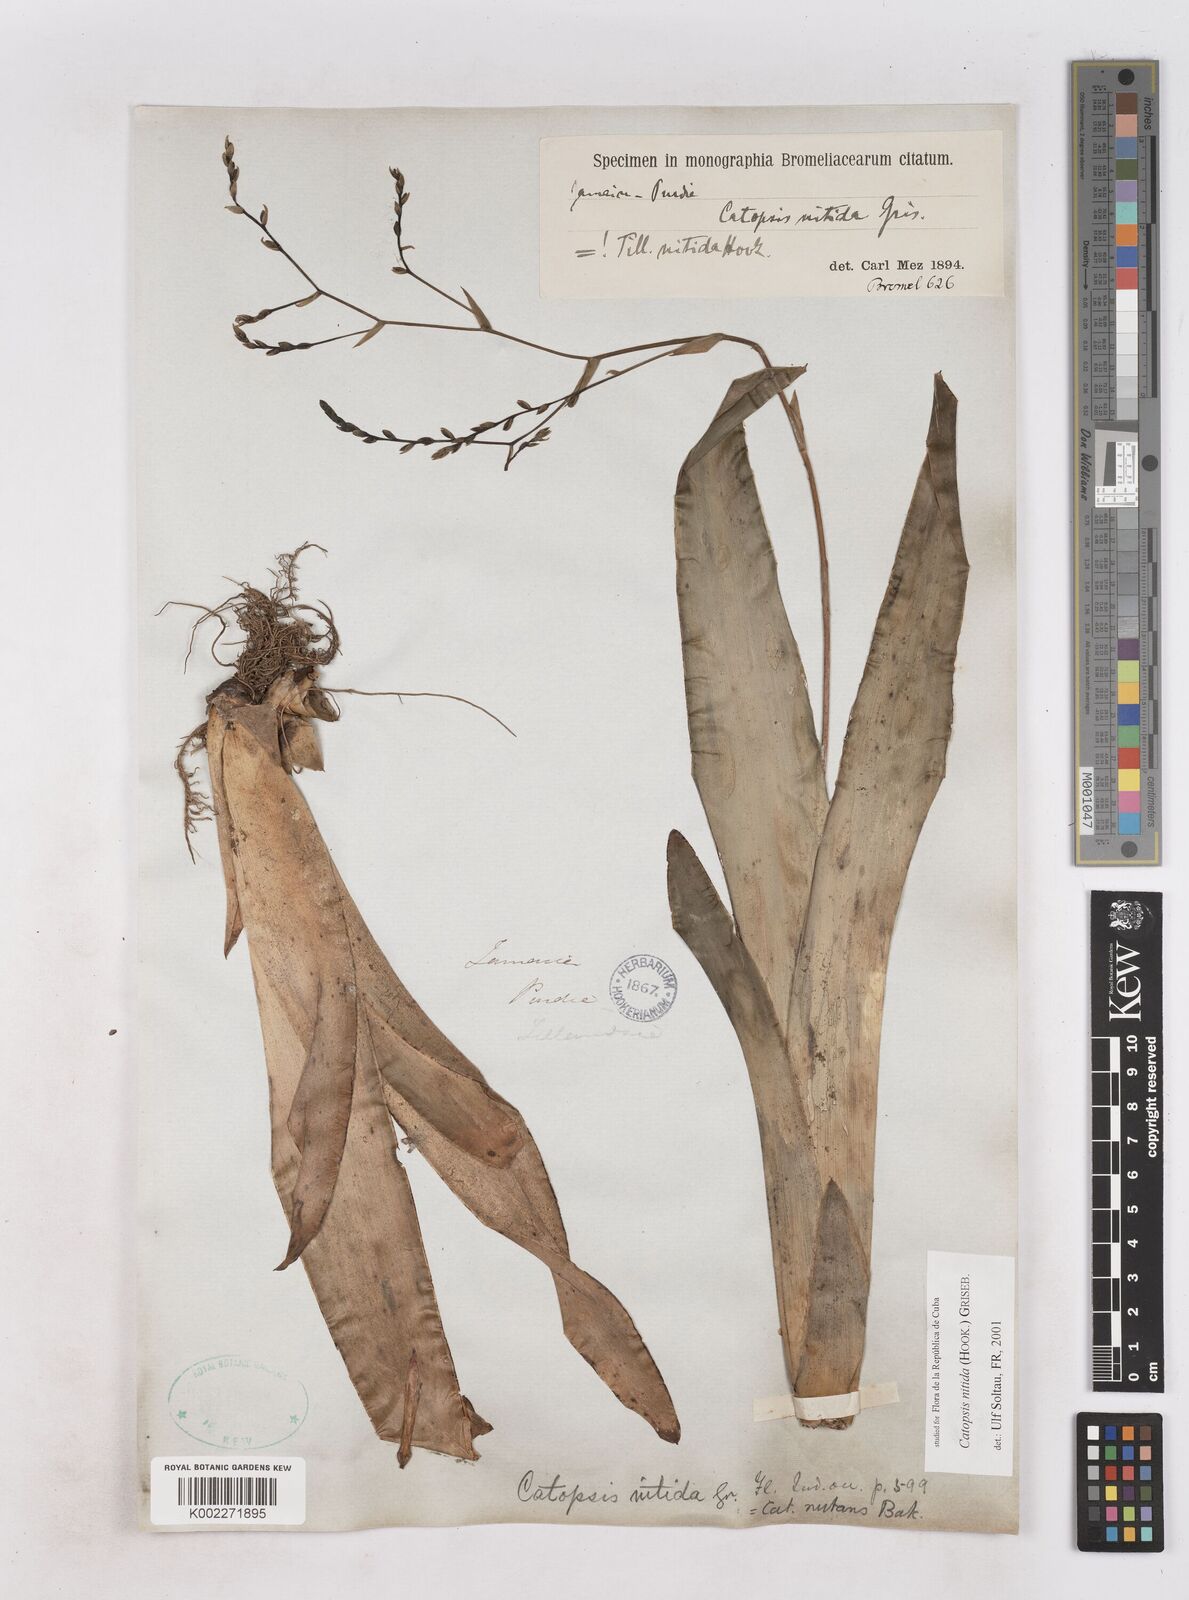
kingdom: Plantae
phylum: Tracheophyta
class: Liliopsida
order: Poales
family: Bromeliaceae
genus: Catopsis
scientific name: Catopsis nitida
